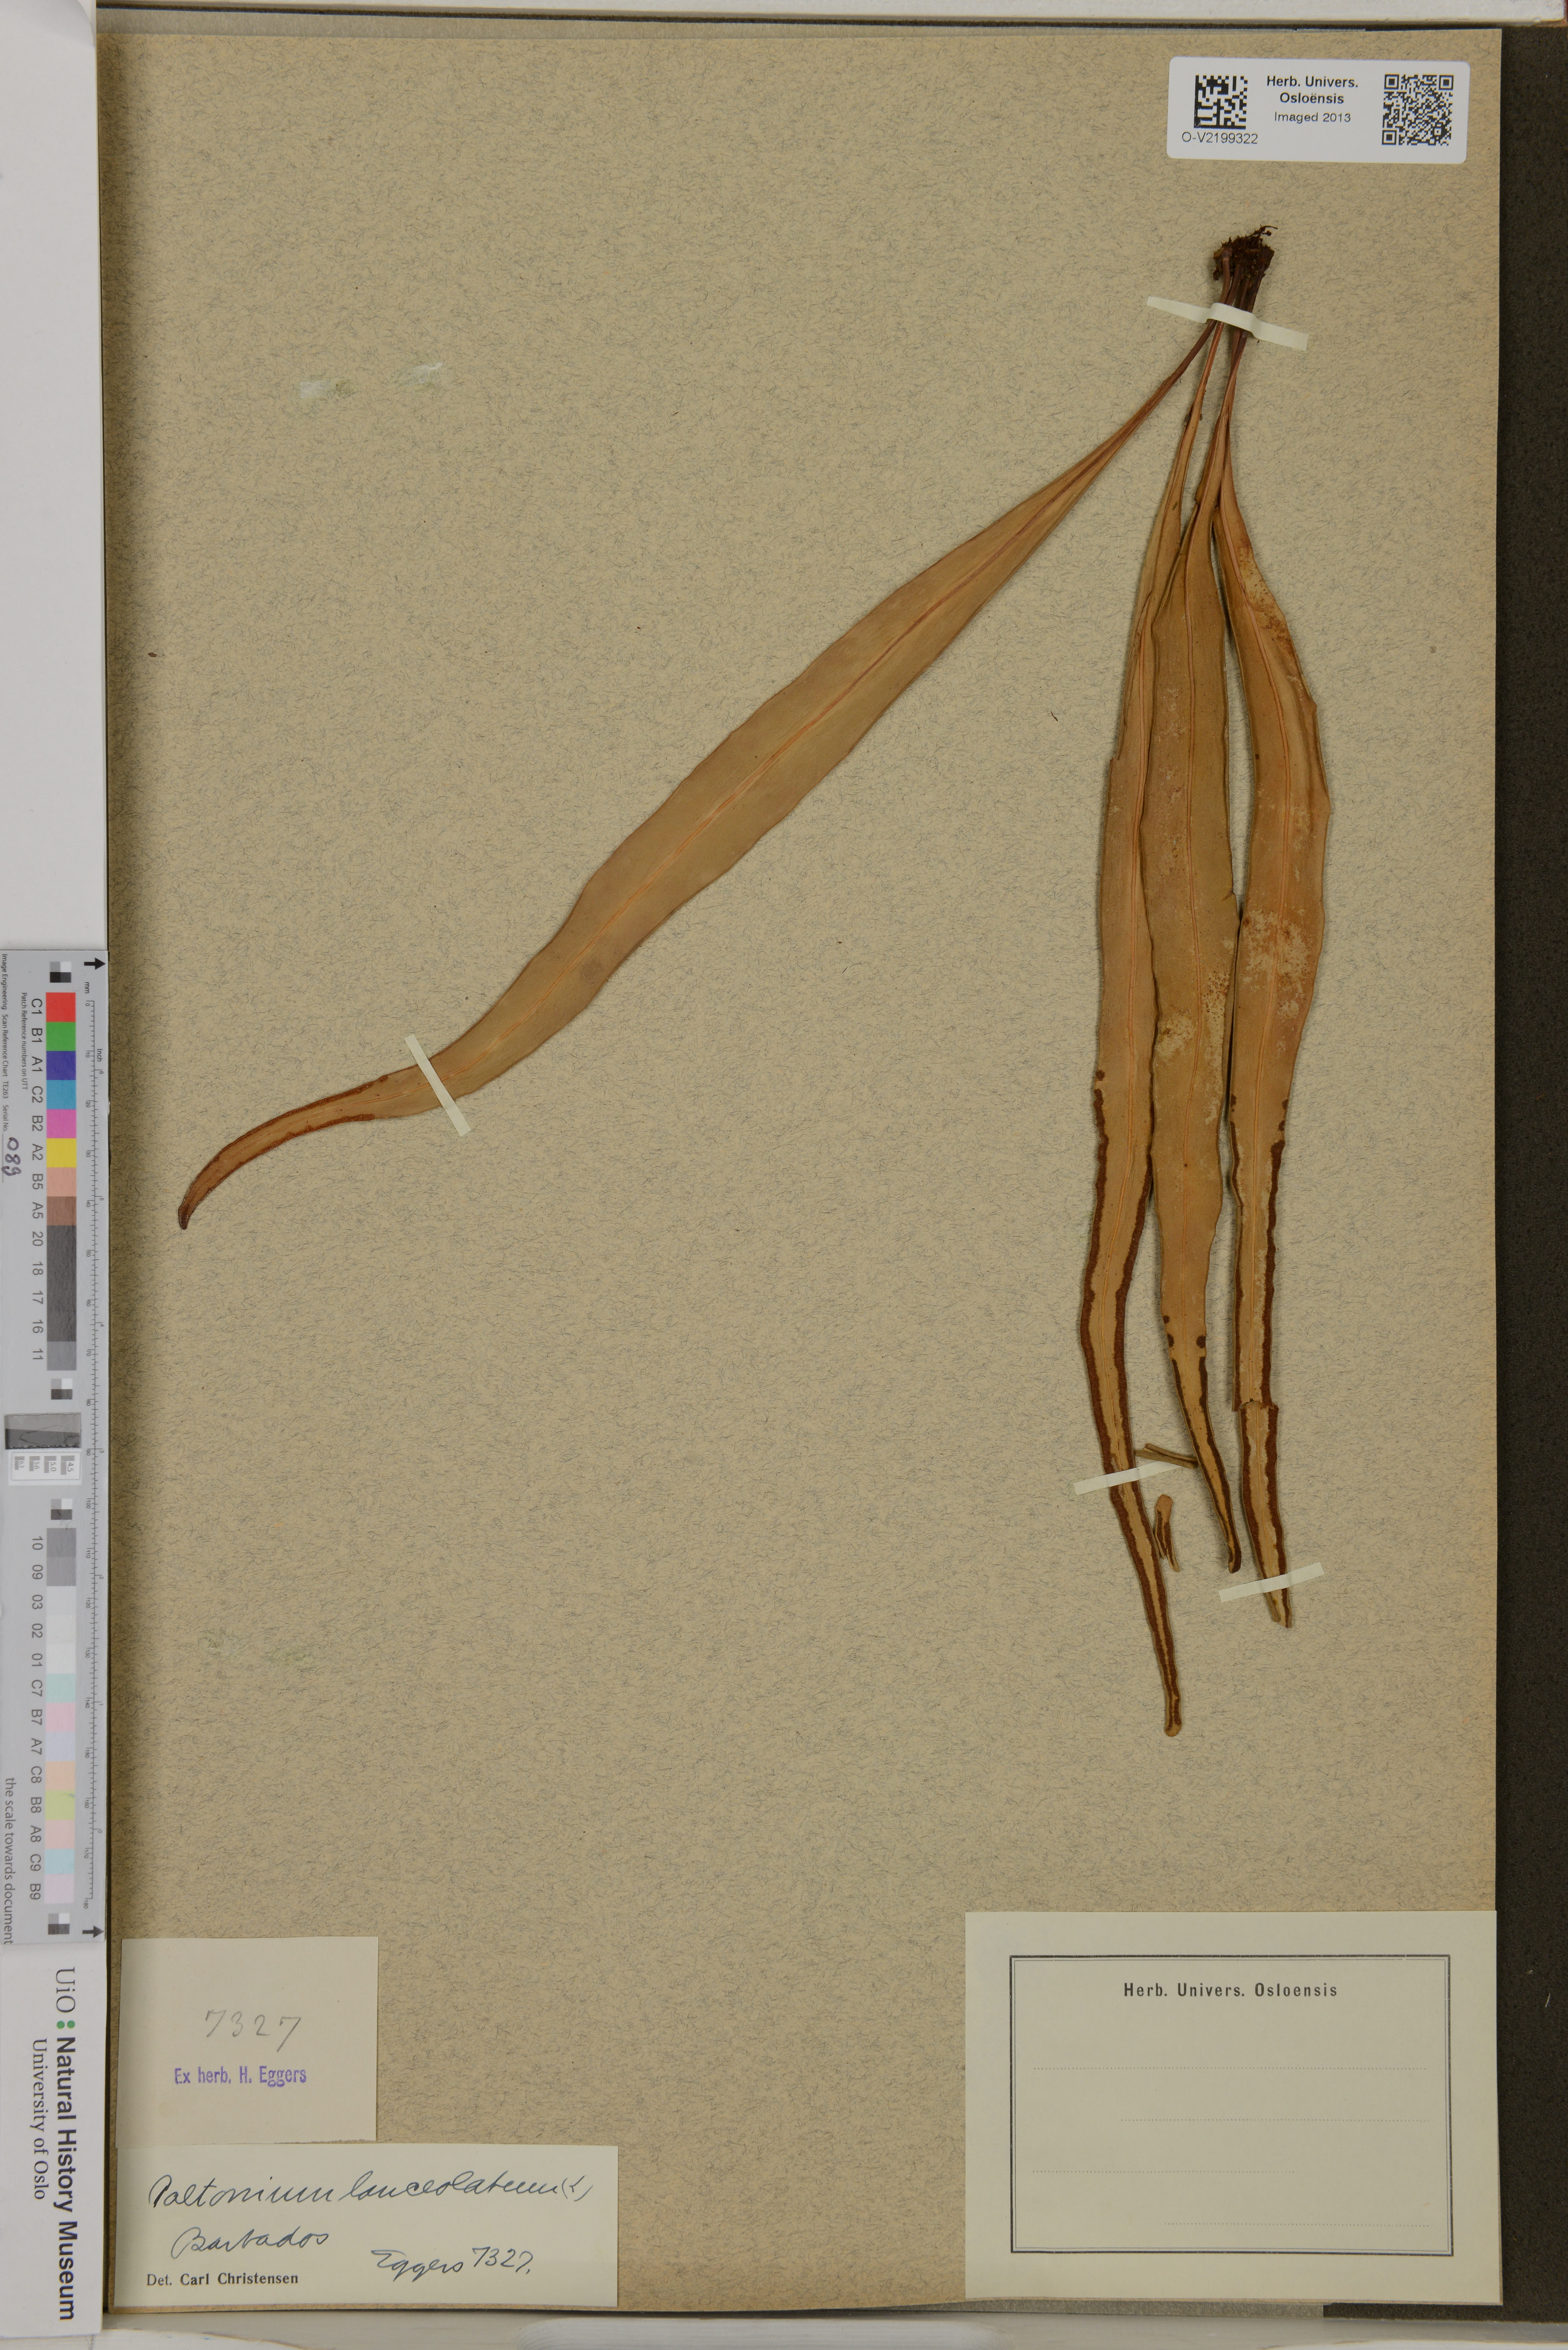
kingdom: Plantae
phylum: Tracheophyta
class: Polypodiopsida
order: Polypodiales
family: Polypodiaceae
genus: Pleopeltis
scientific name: Pleopeltis marginata
